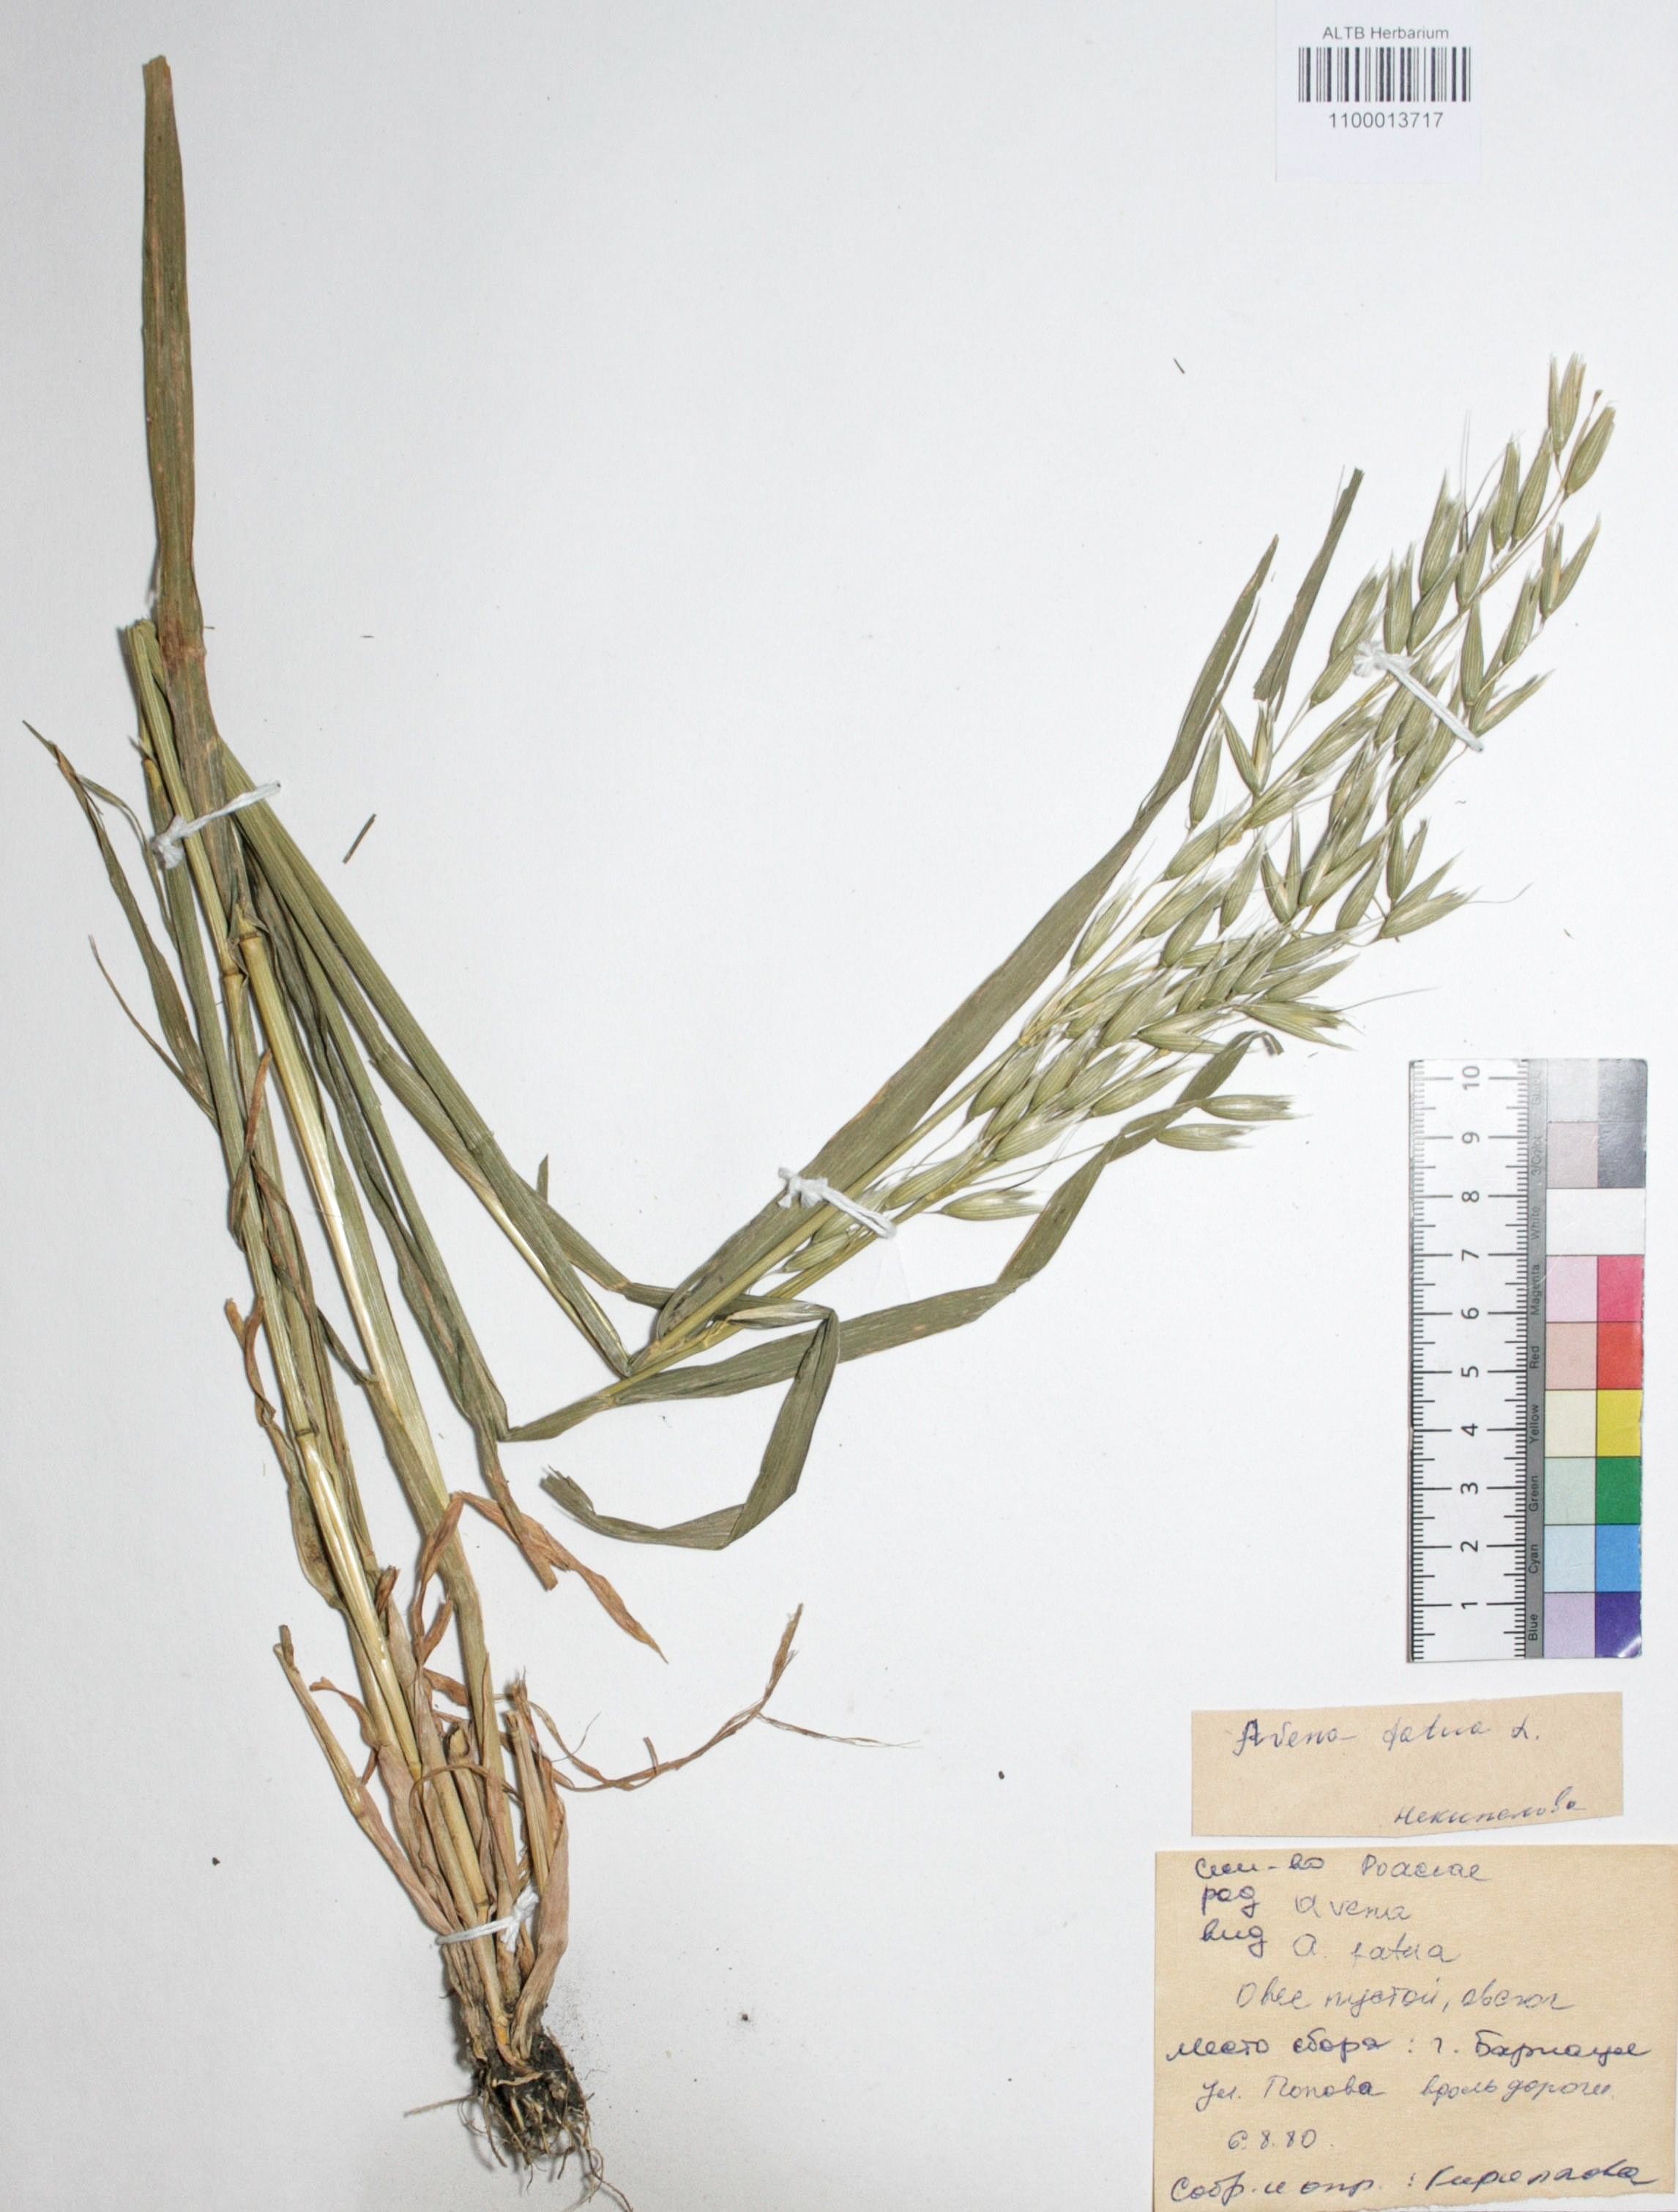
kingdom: Plantae
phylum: Tracheophyta
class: Liliopsida
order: Poales
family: Poaceae
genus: Avena
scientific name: Avena sativa
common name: Oat
